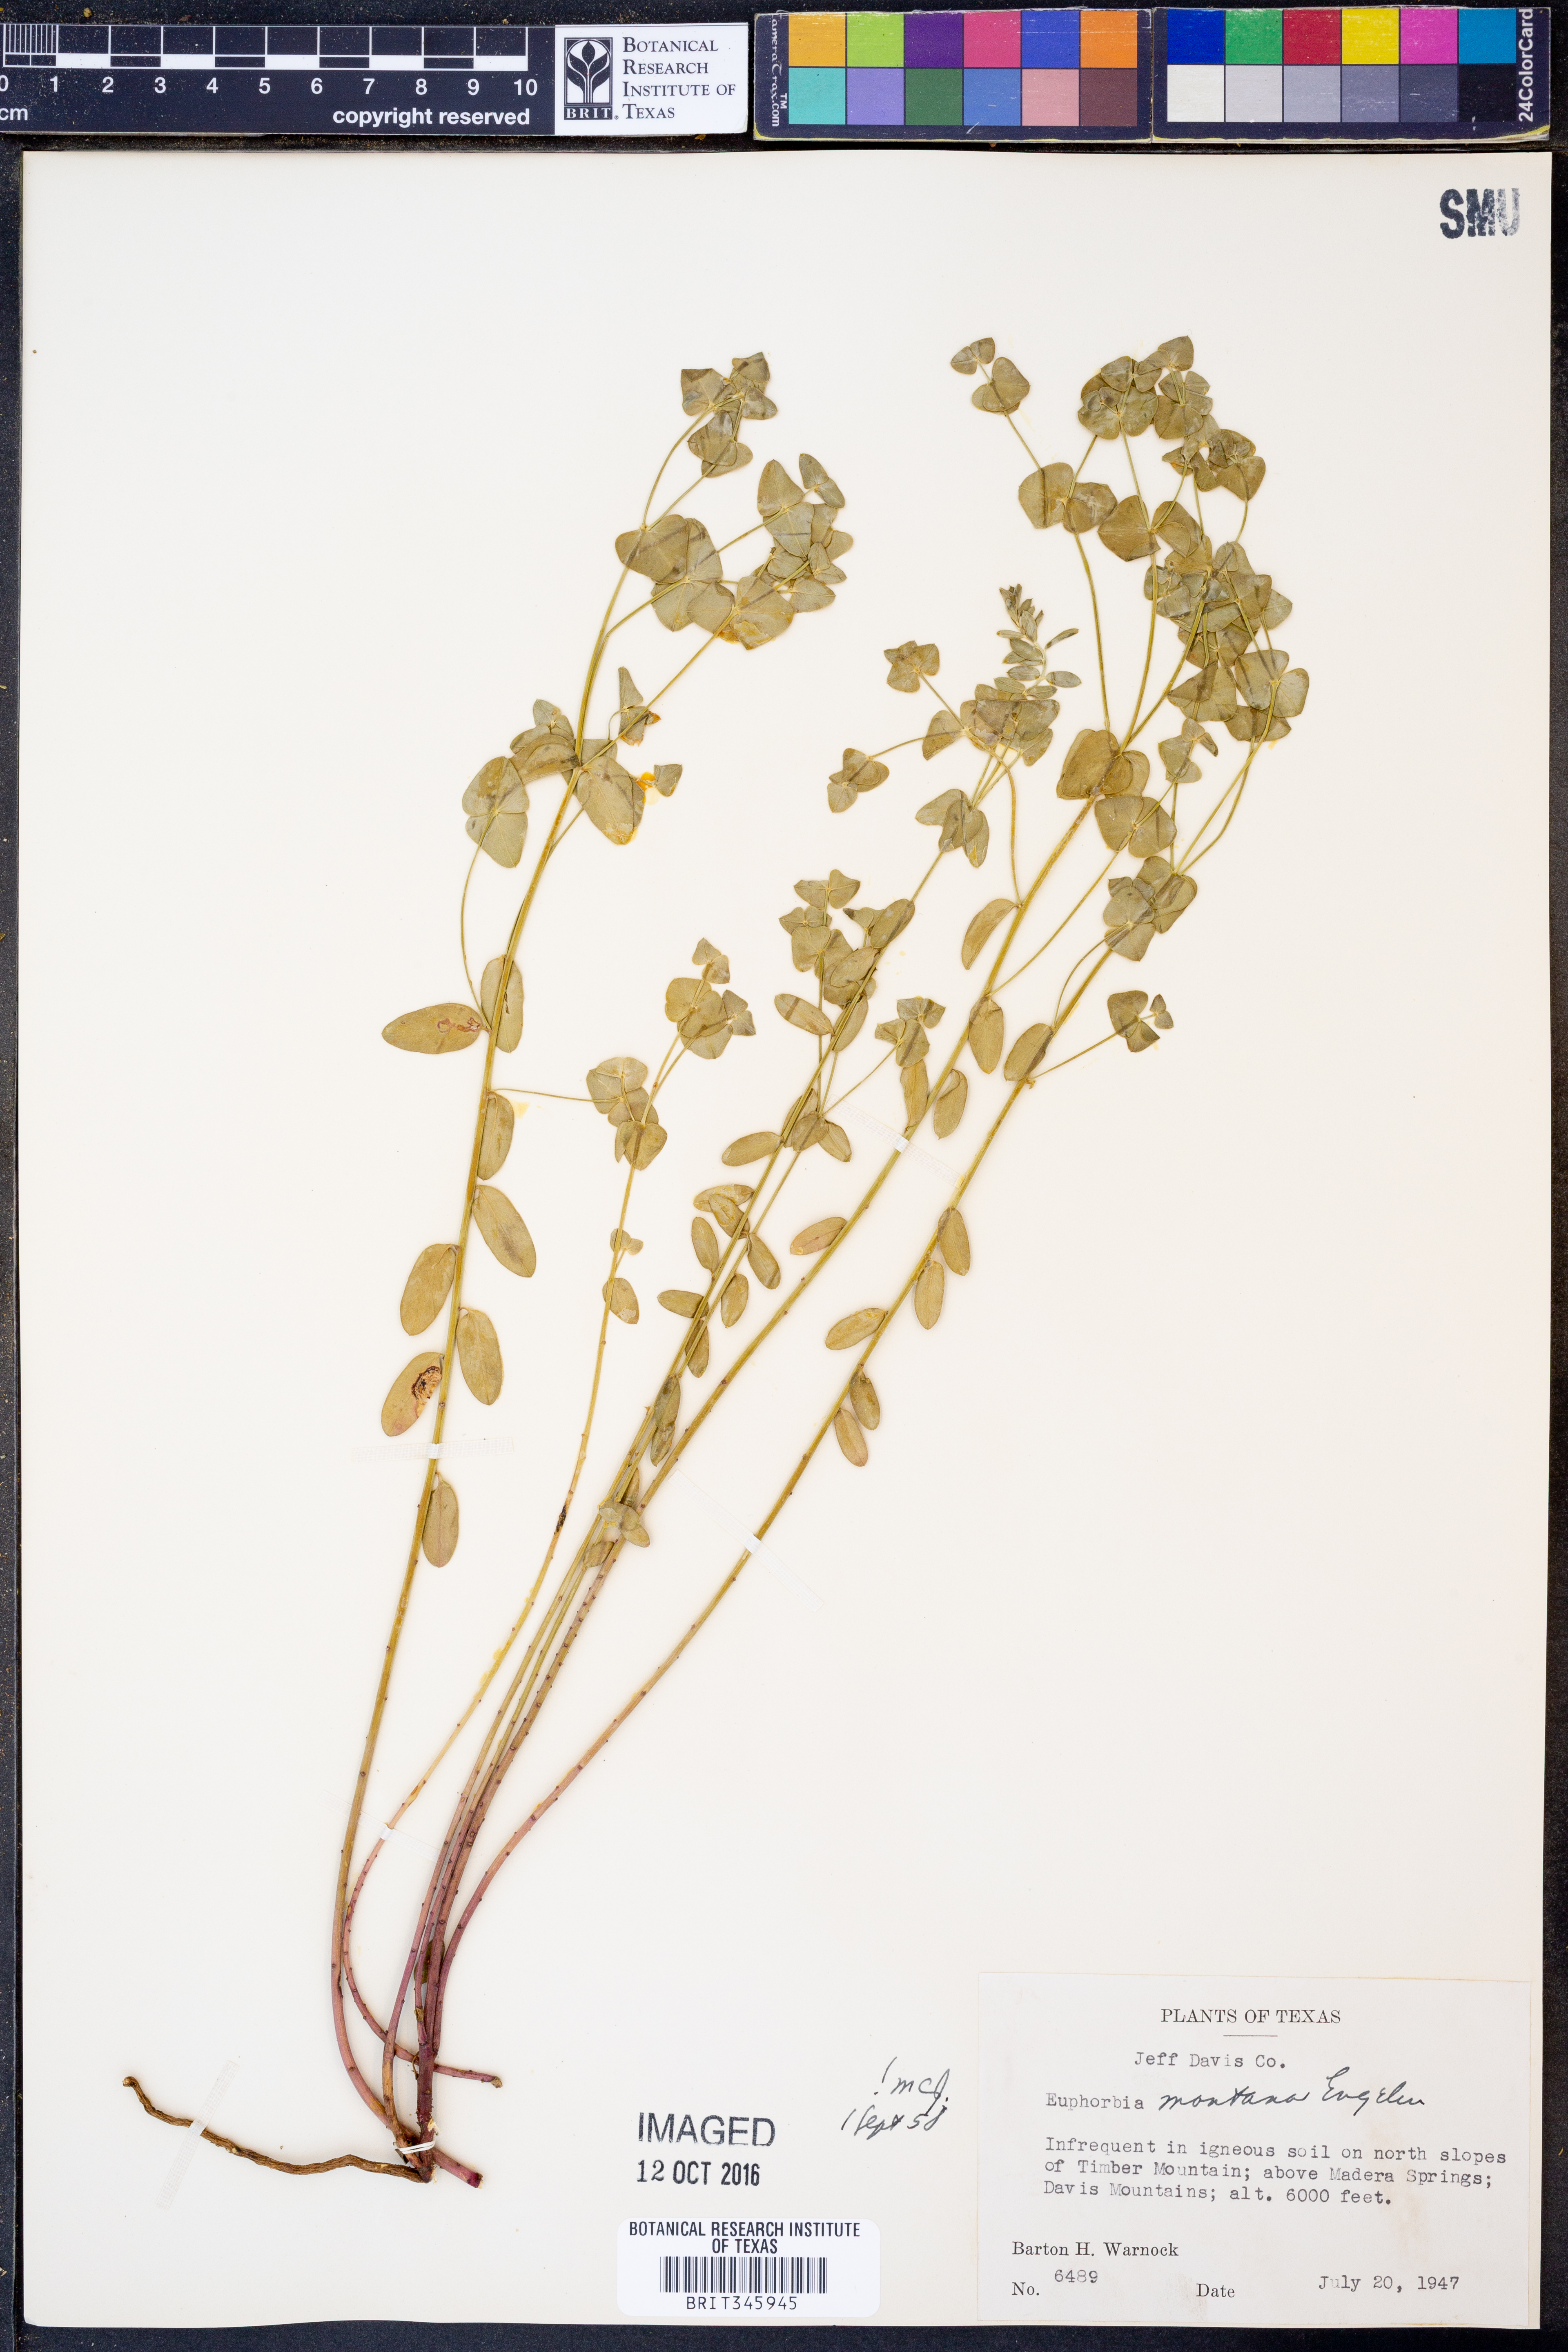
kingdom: Plantae
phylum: Tracheophyta
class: Magnoliopsida
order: Malpighiales
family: Euphorbiaceae
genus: Euphorbia
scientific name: Euphorbia brachycera
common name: Shorthorn spurge
